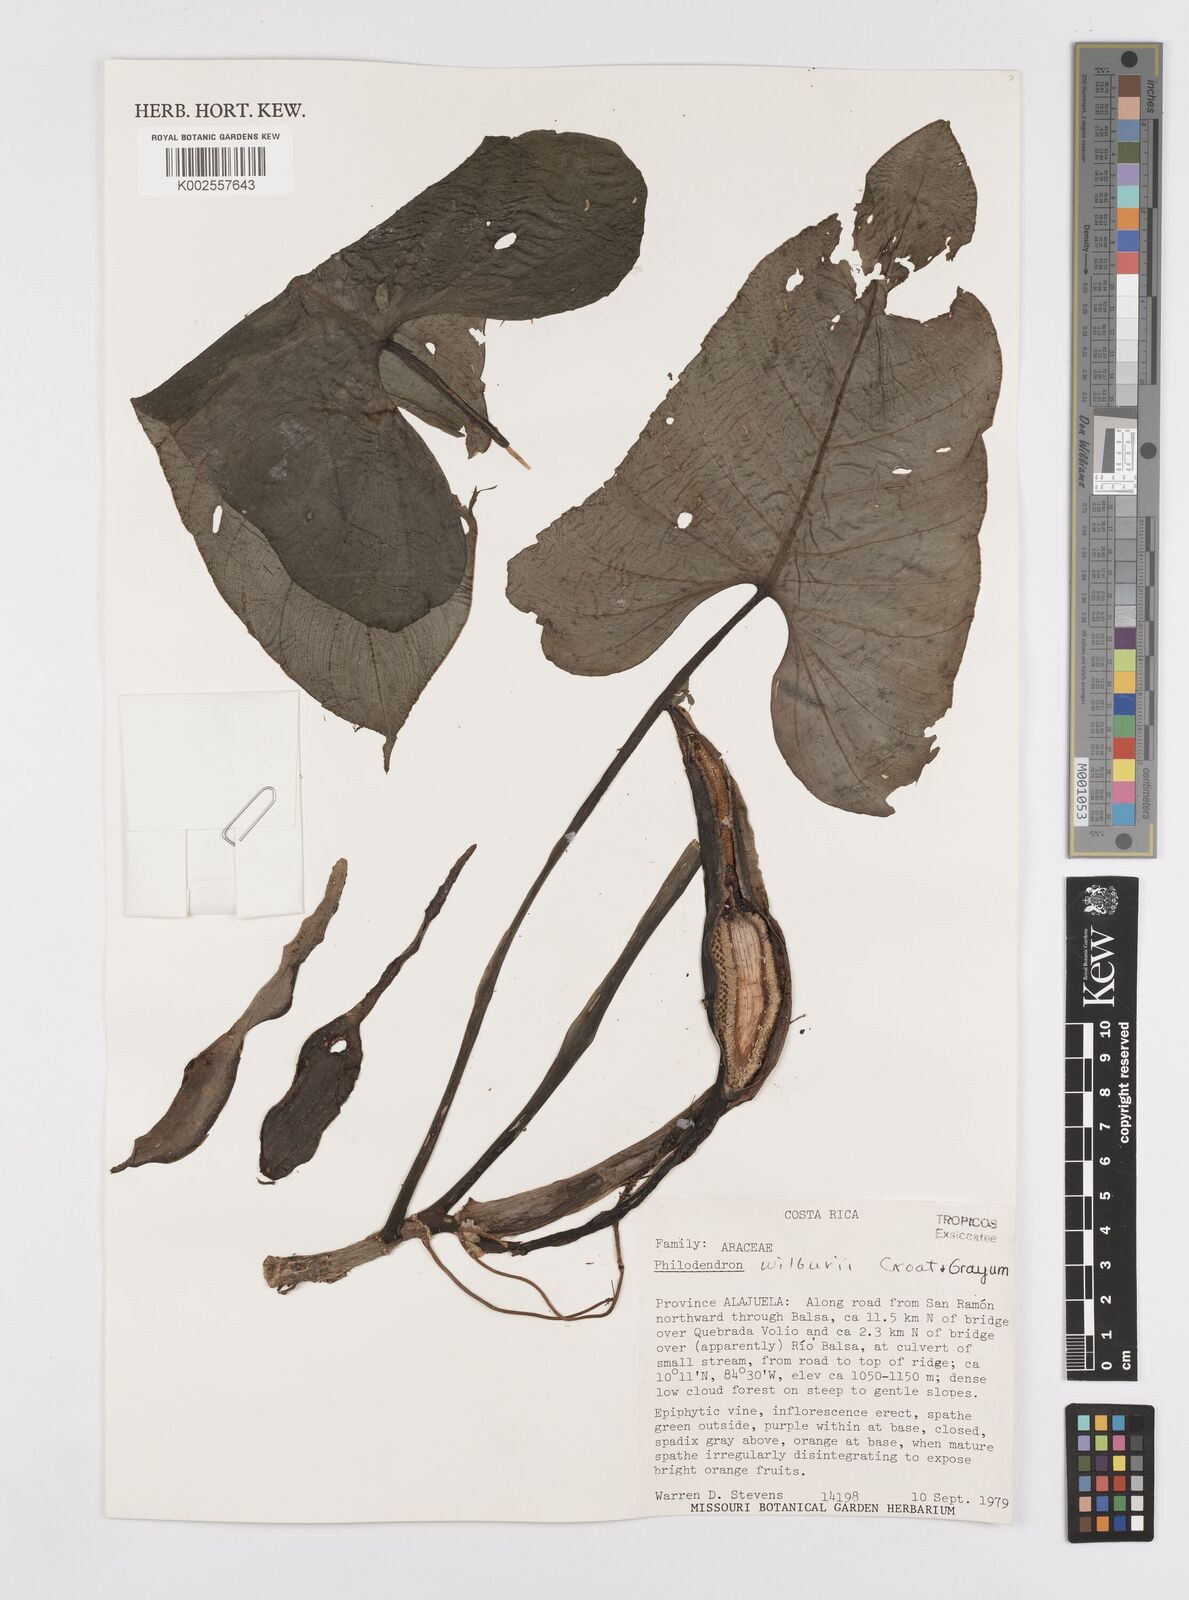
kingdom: Plantae
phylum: Tracheophyta
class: Liliopsida
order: Alismatales
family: Araceae
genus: Philodendron
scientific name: Philodendron wilburii
